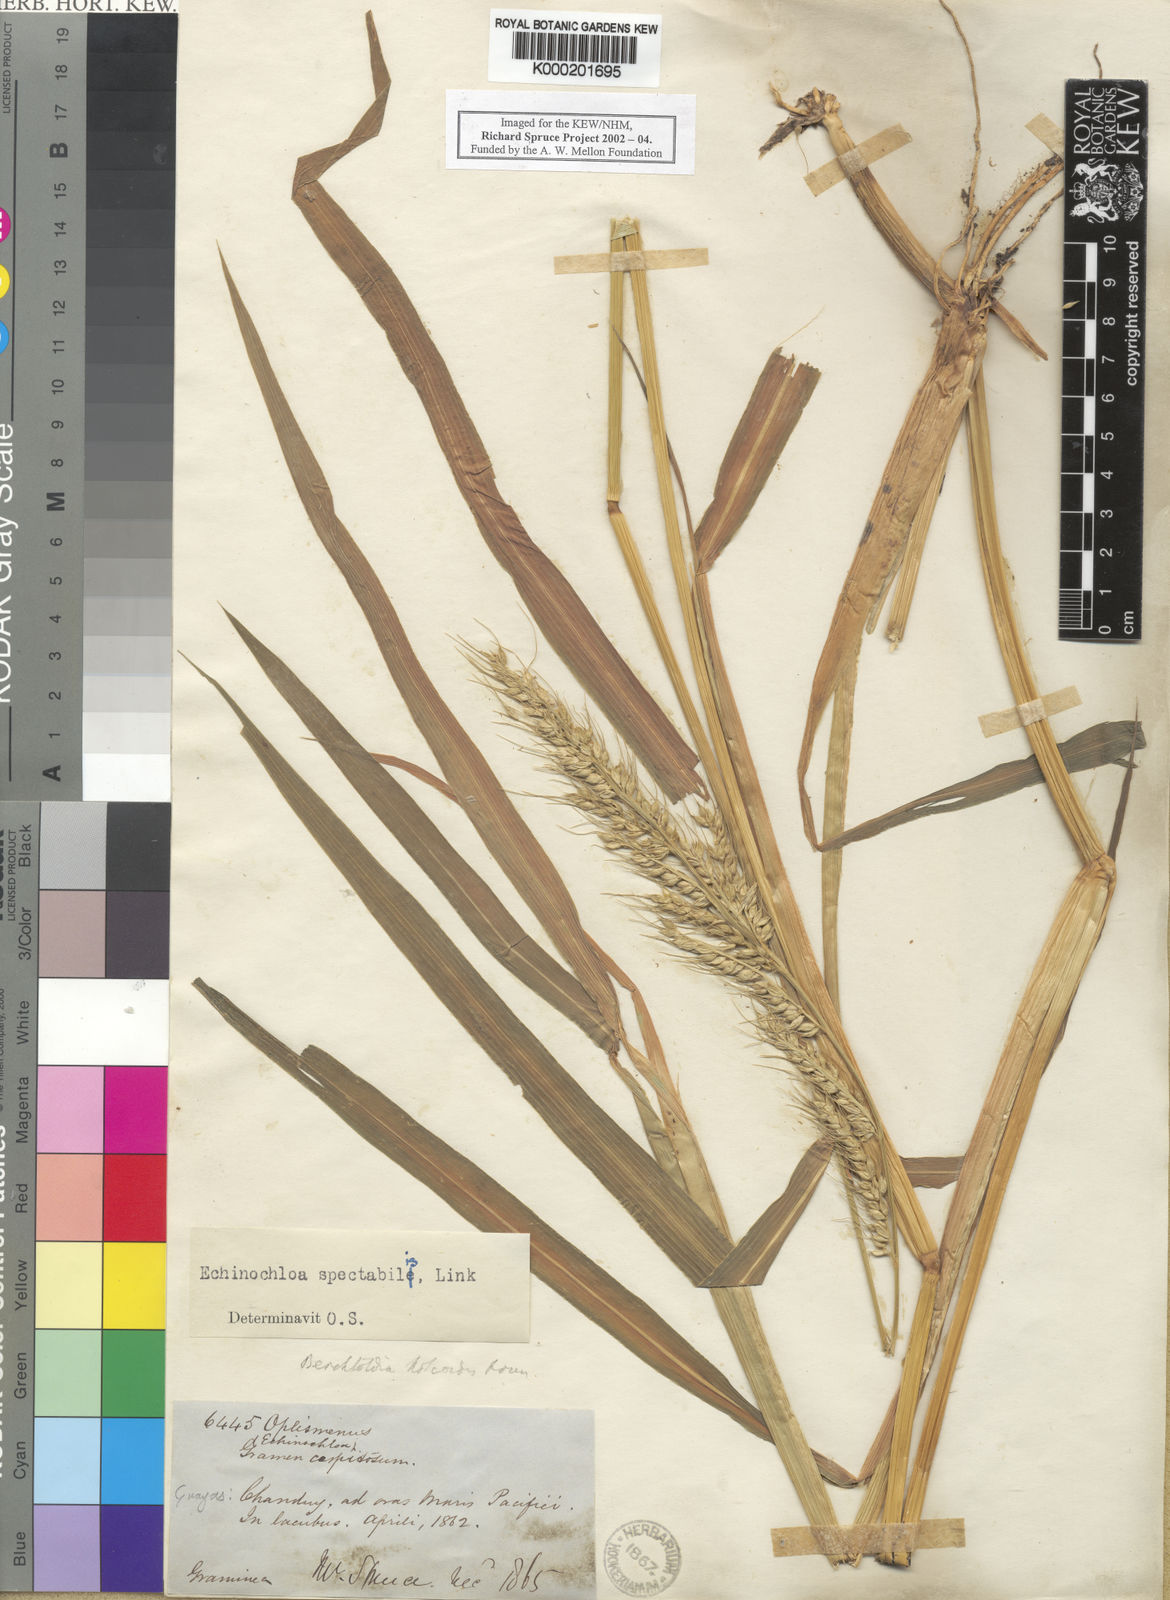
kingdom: Plantae
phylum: Tracheophyta
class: Liliopsida
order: Poales
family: Poaceae
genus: Echinochloa
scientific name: Echinochloa polystachya
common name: Creeping river grass
